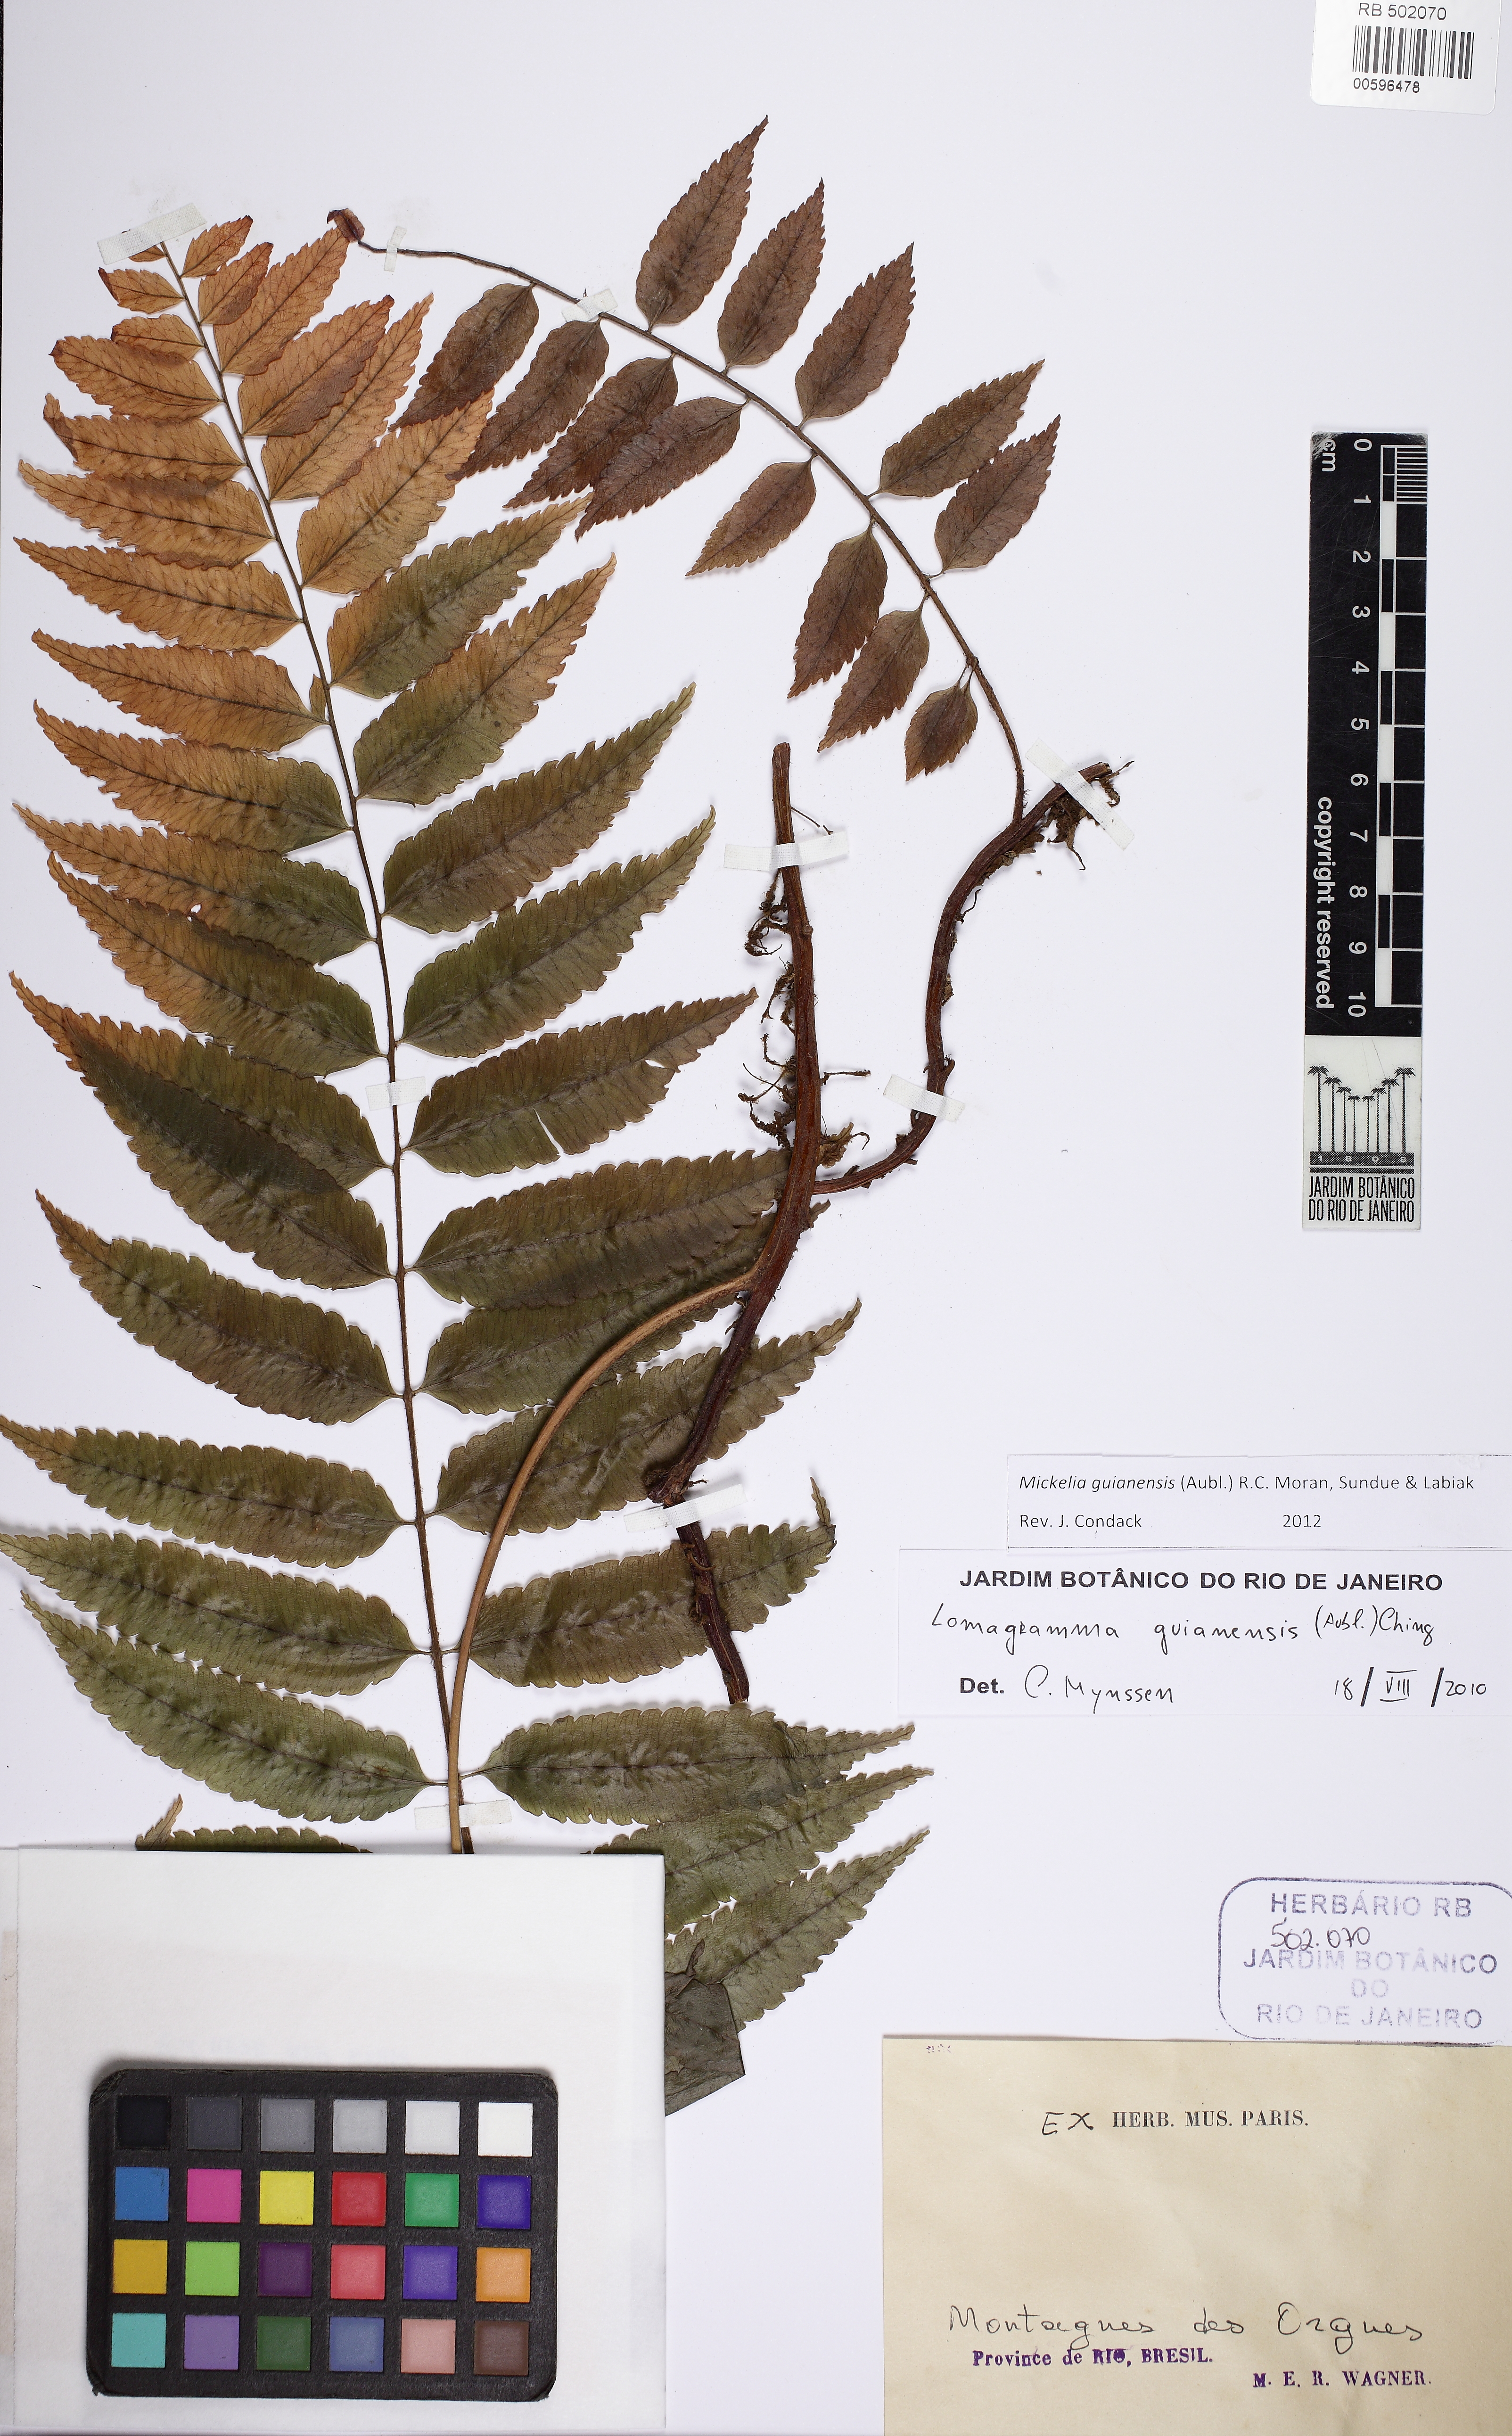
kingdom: Plantae
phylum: Tracheophyta
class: Polypodiopsida
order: Polypodiales
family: Dryopteridaceae
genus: Mickelia
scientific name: Mickelia scandens
